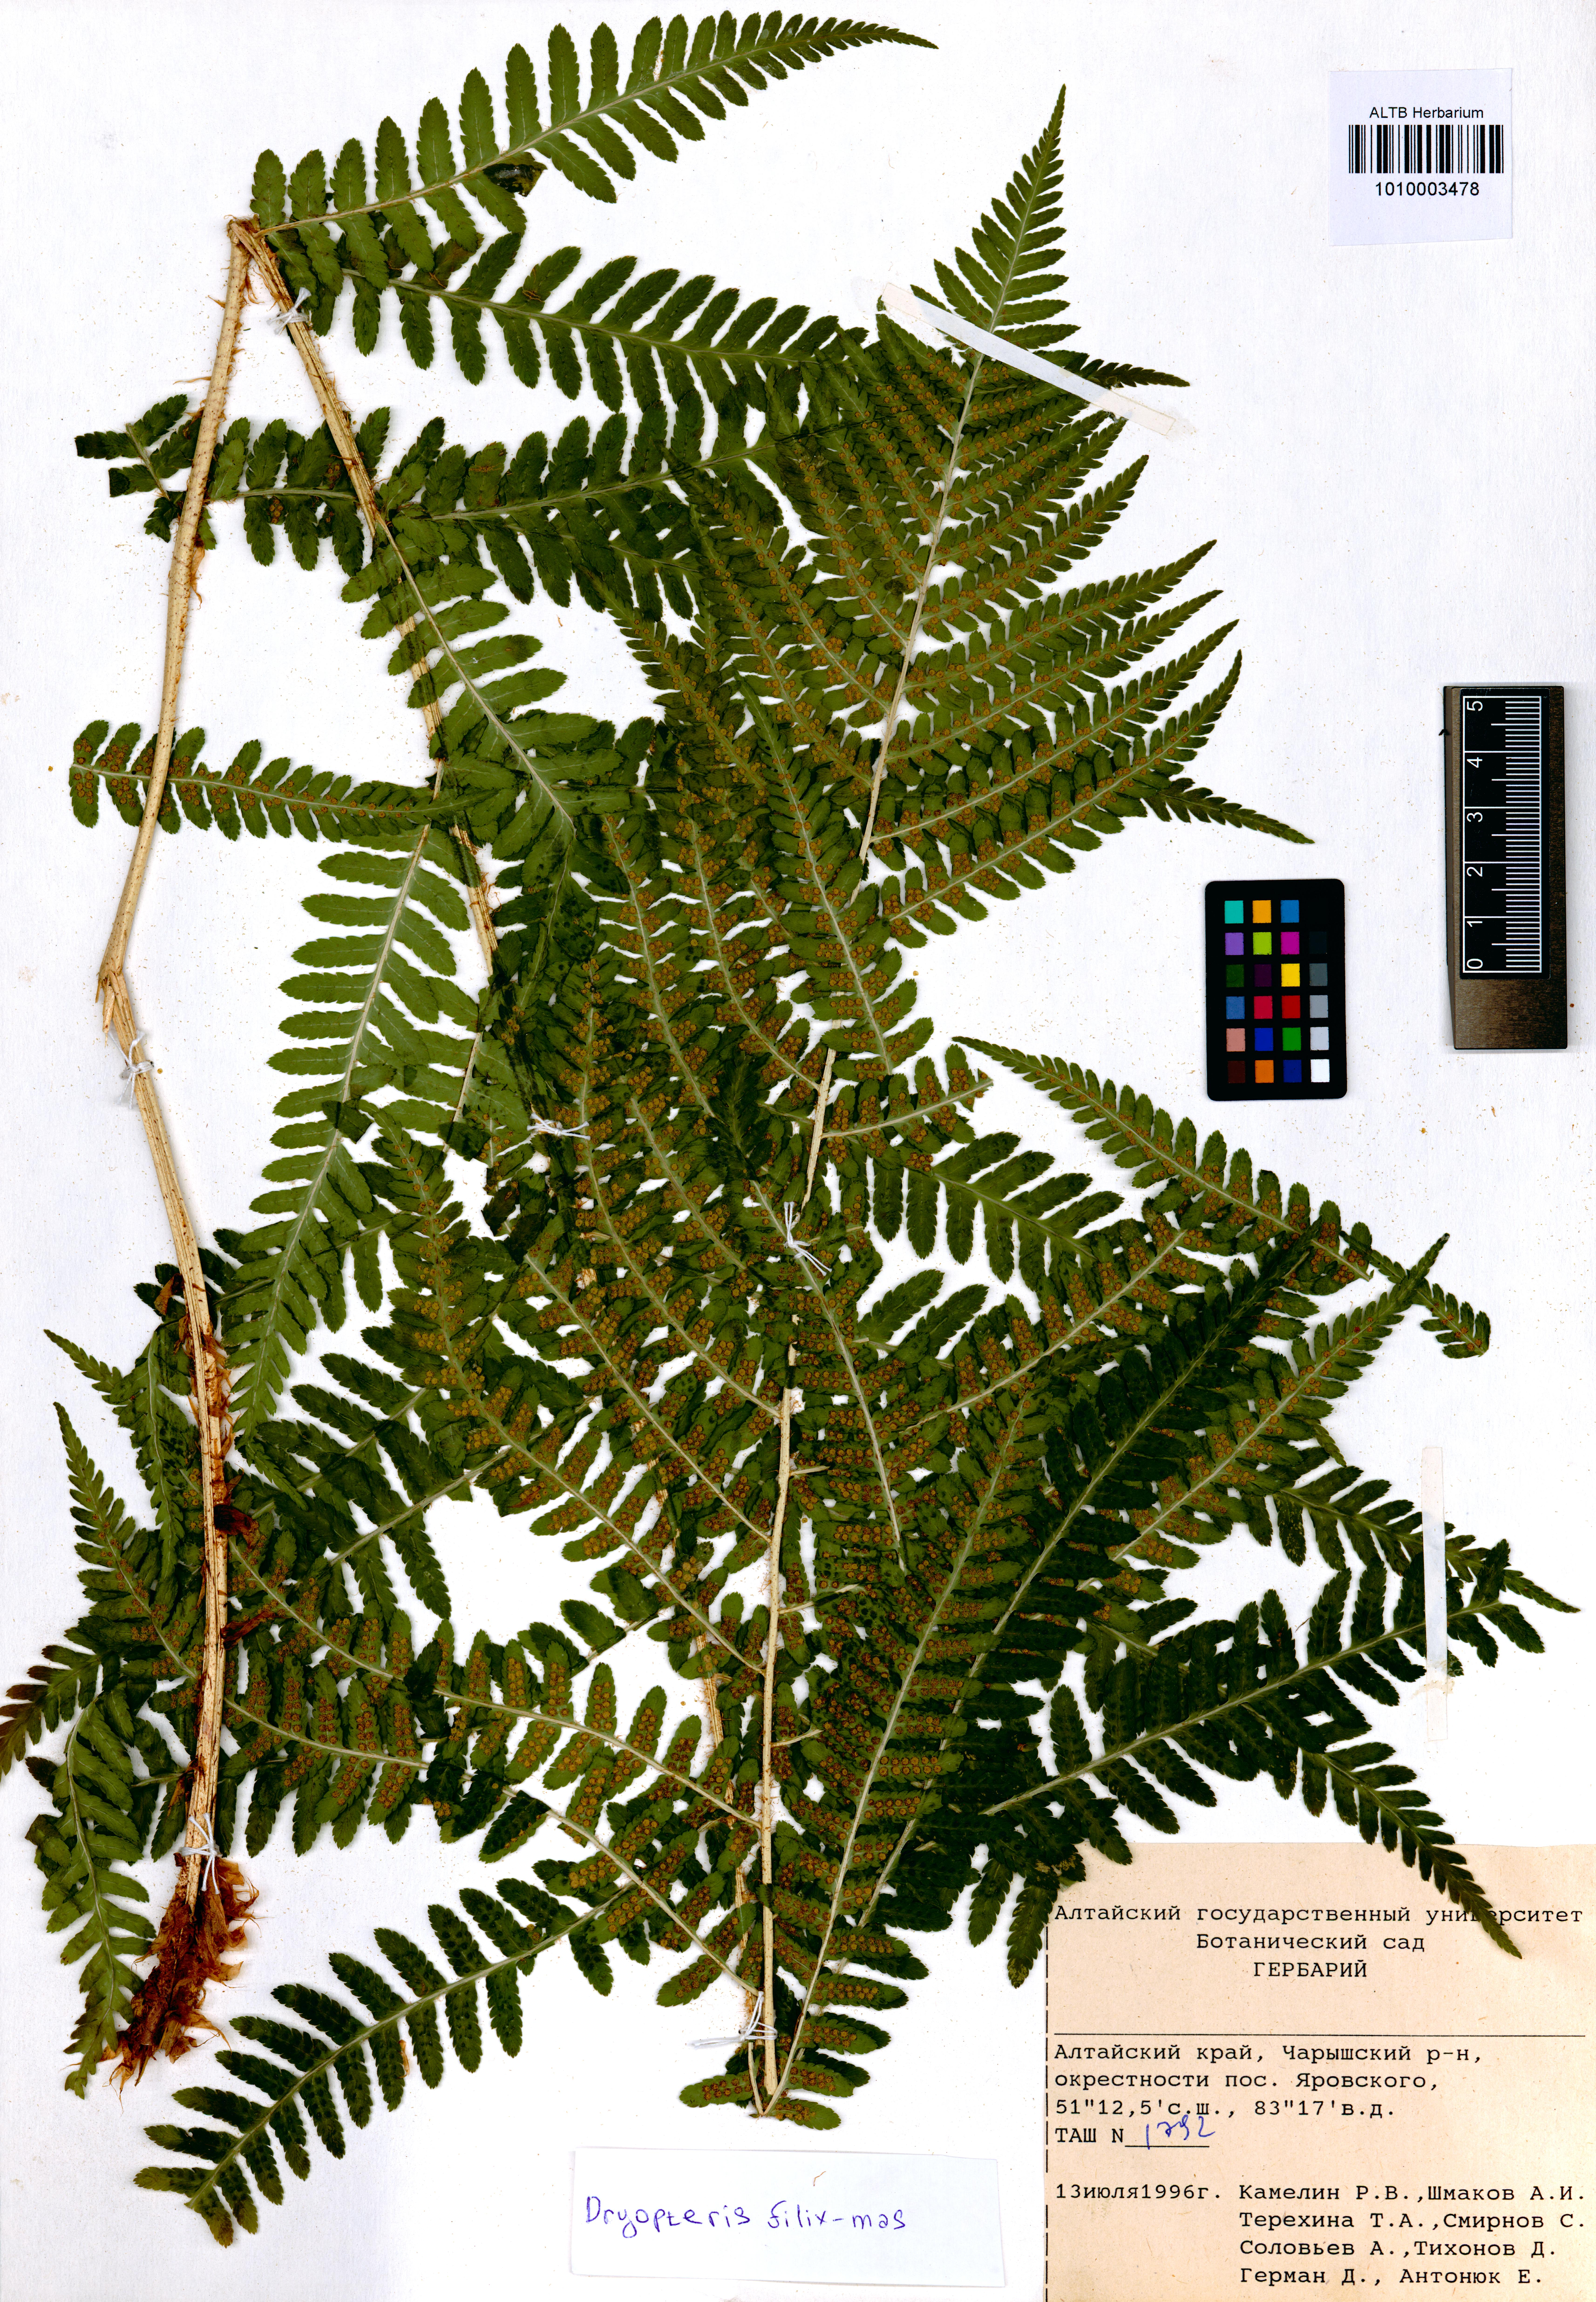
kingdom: Plantae
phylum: Tracheophyta
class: Polypodiopsida
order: Polypodiales
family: Dryopteridaceae
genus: Dryopteris
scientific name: Dryopteris filix-mas
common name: Male fern
